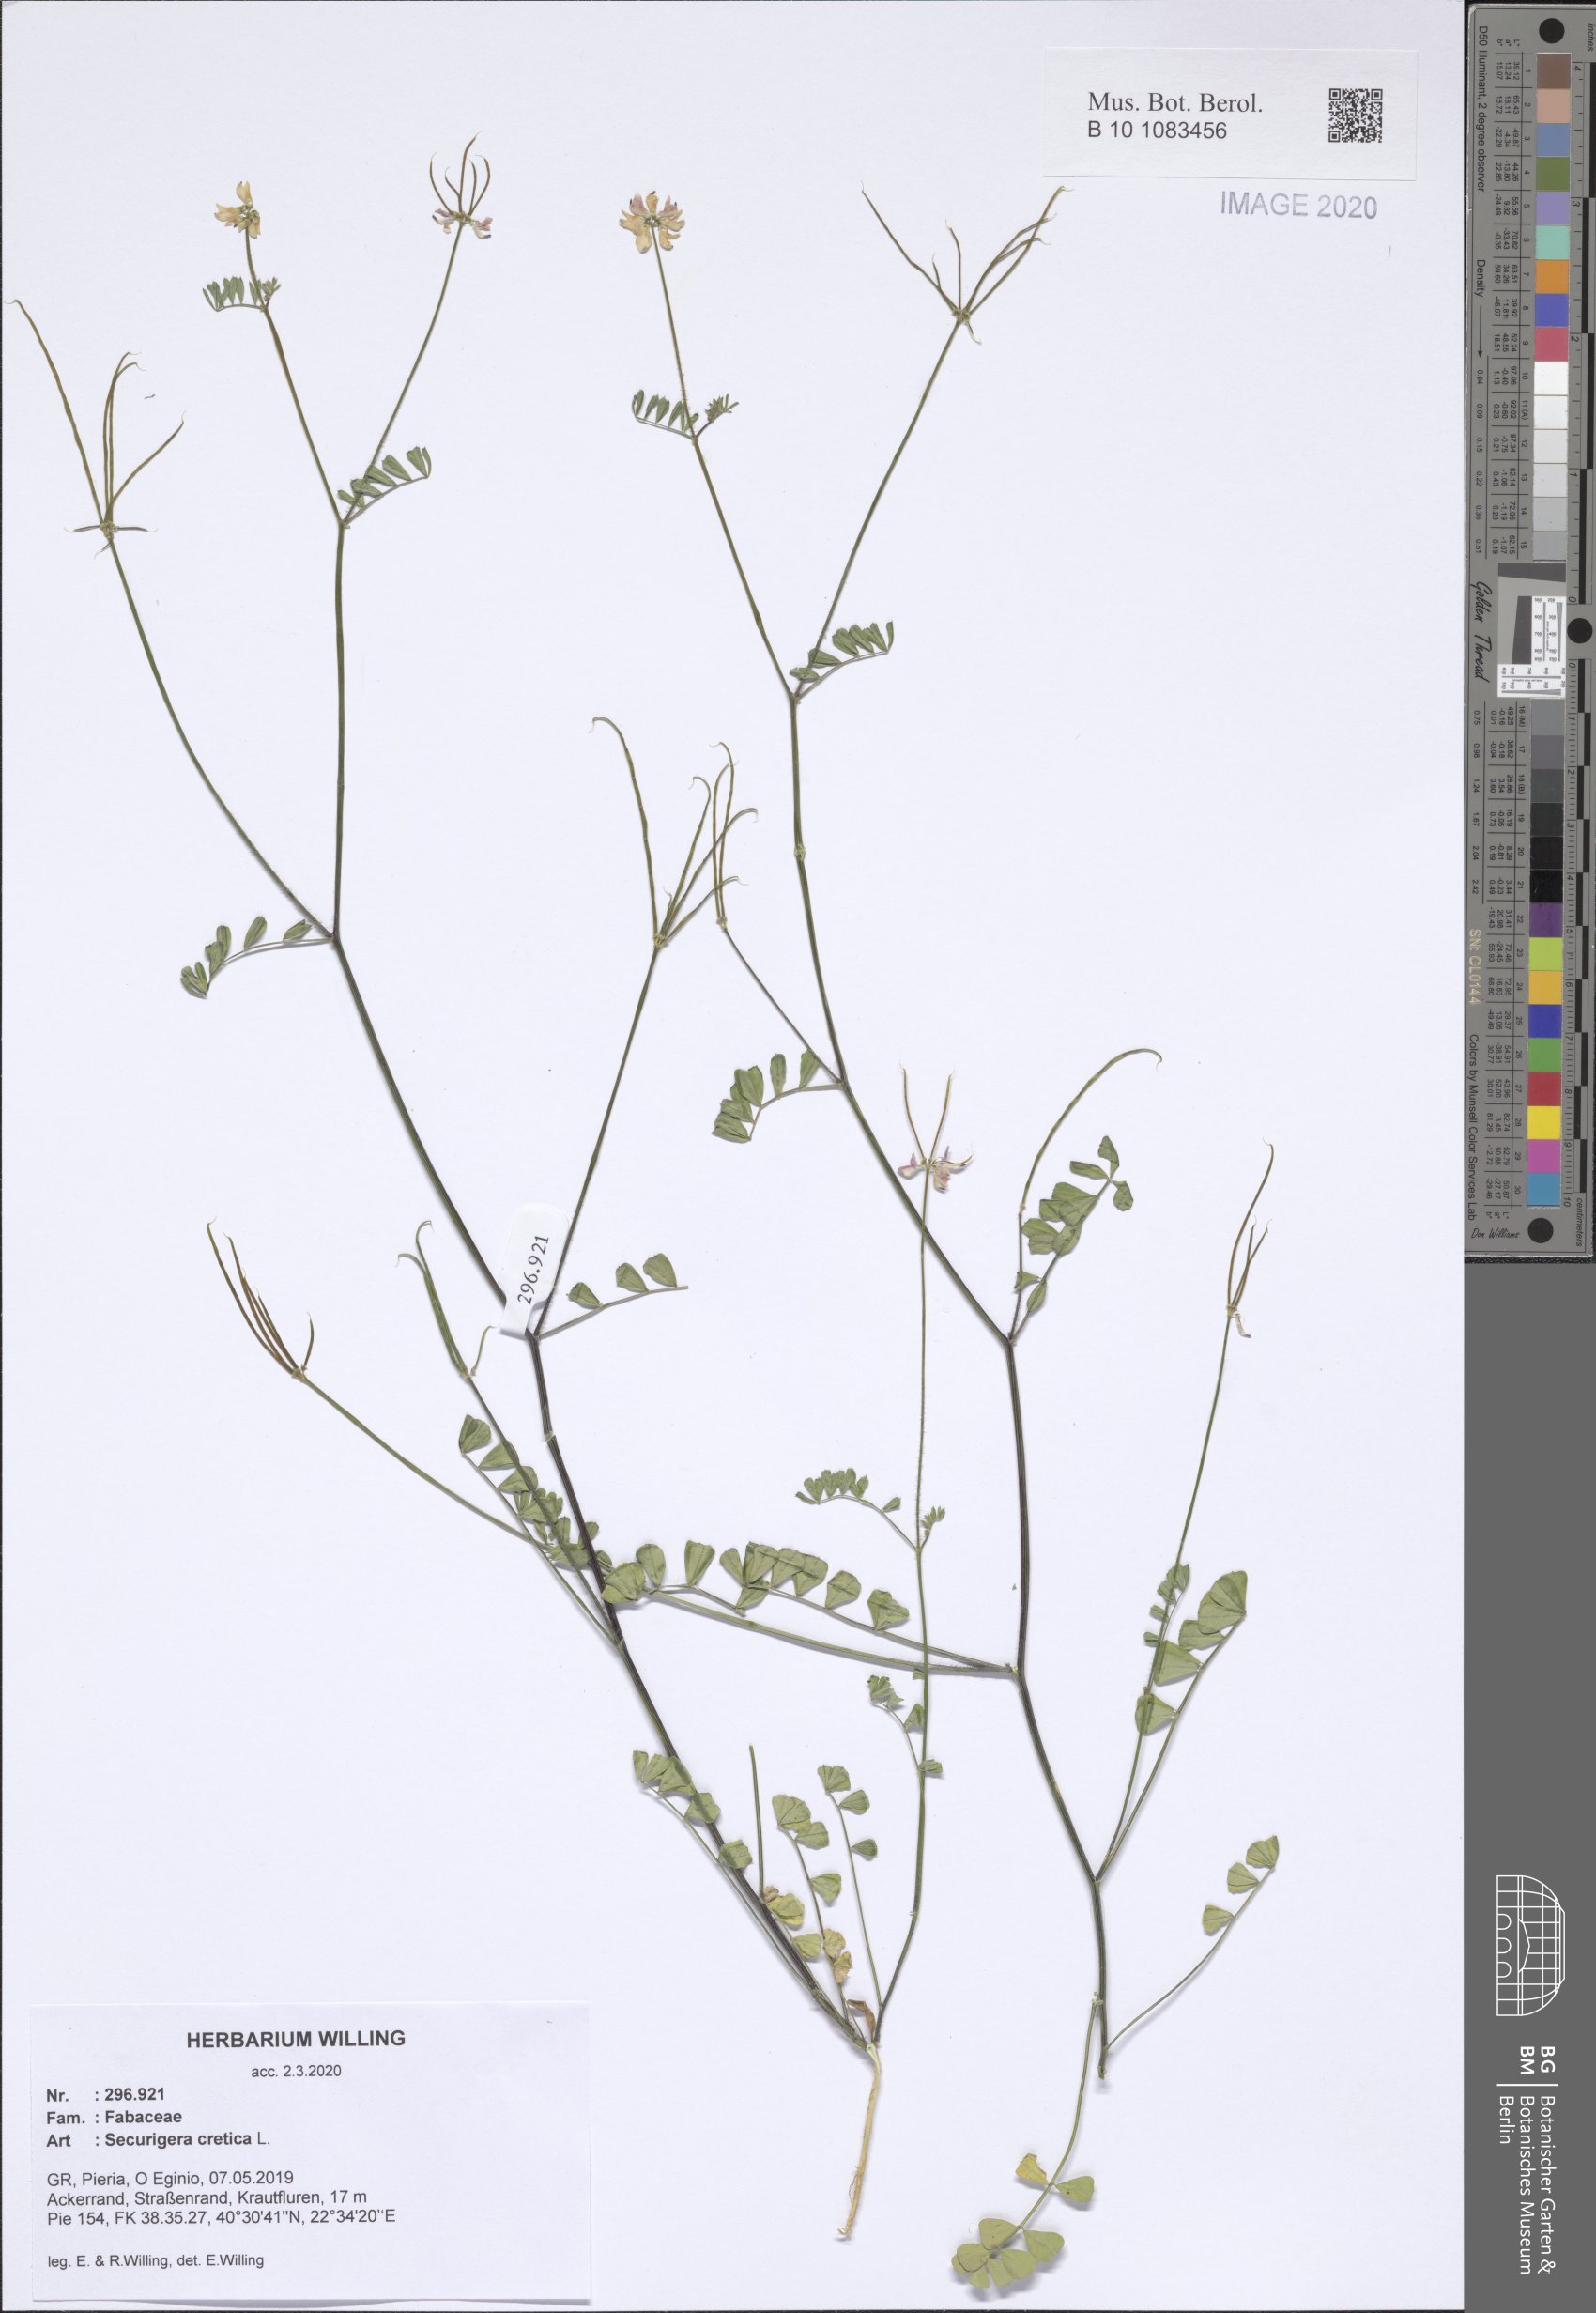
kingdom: Plantae
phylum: Tracheophyta
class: Magnoliopsida
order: Fabales
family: Fabaceae
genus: Coronilla
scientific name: Coronilla cretica
